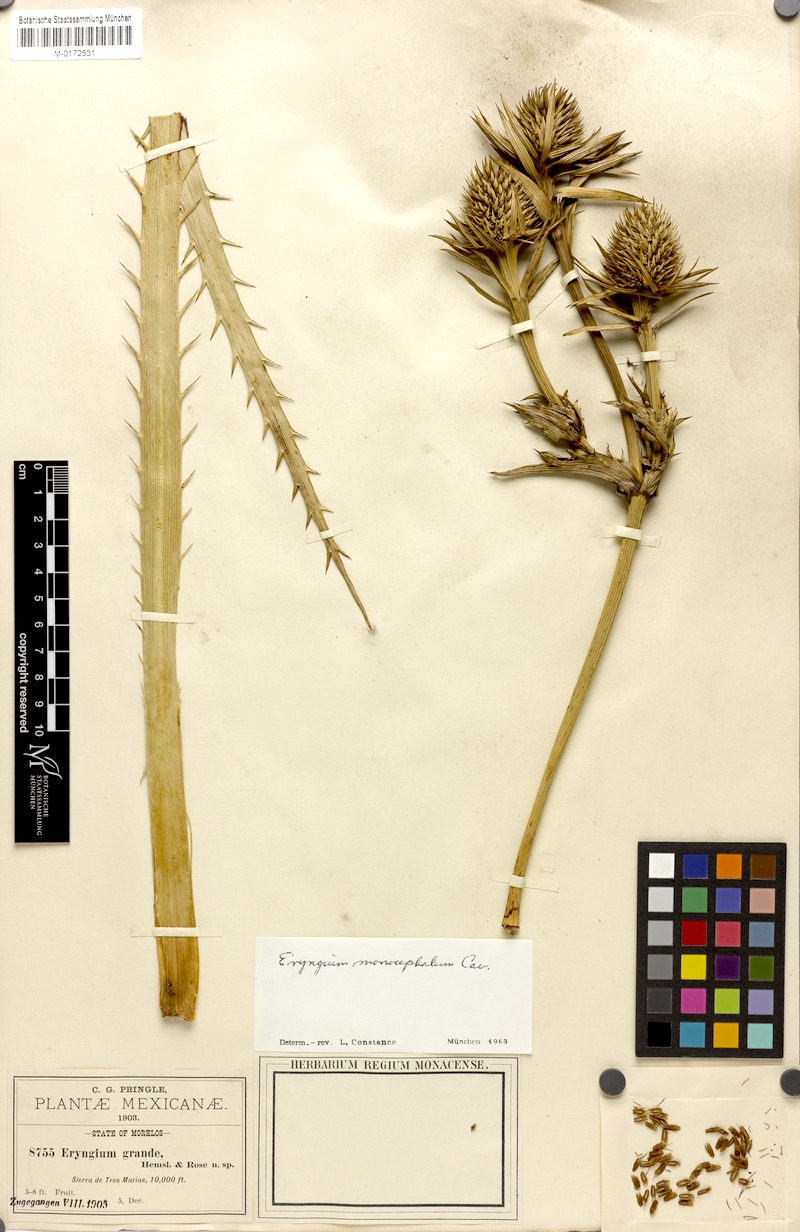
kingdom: Plantae
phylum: Tracheophyta
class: Magnoliopsida
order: Apiales
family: Apiaceae
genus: Eryngium
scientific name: Eryngium monocephalum
